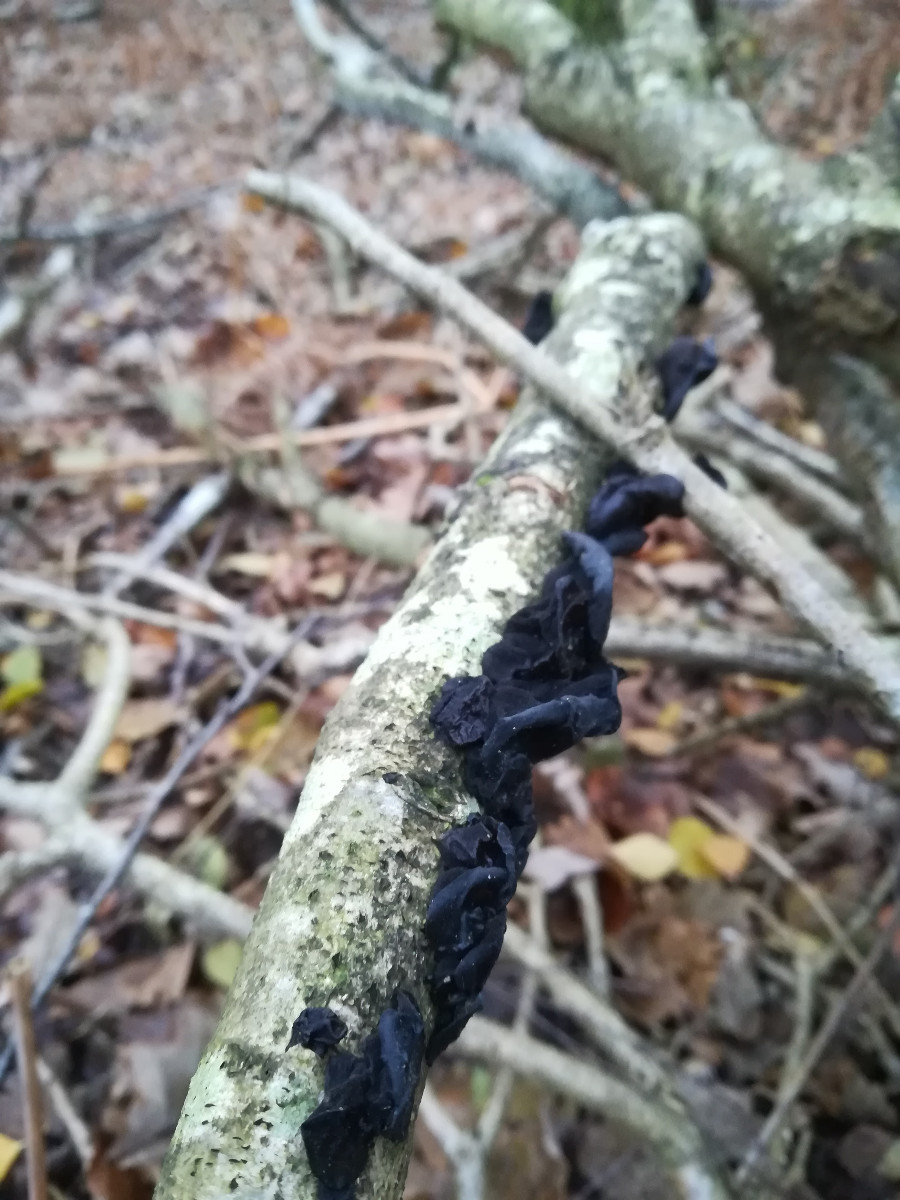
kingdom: Fungi
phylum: Basidiomycota
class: Agaricomycetes
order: Auriculariales
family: Auriculariaceae
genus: Exidia
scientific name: Exidia glandulosa
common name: ege-bævretop
